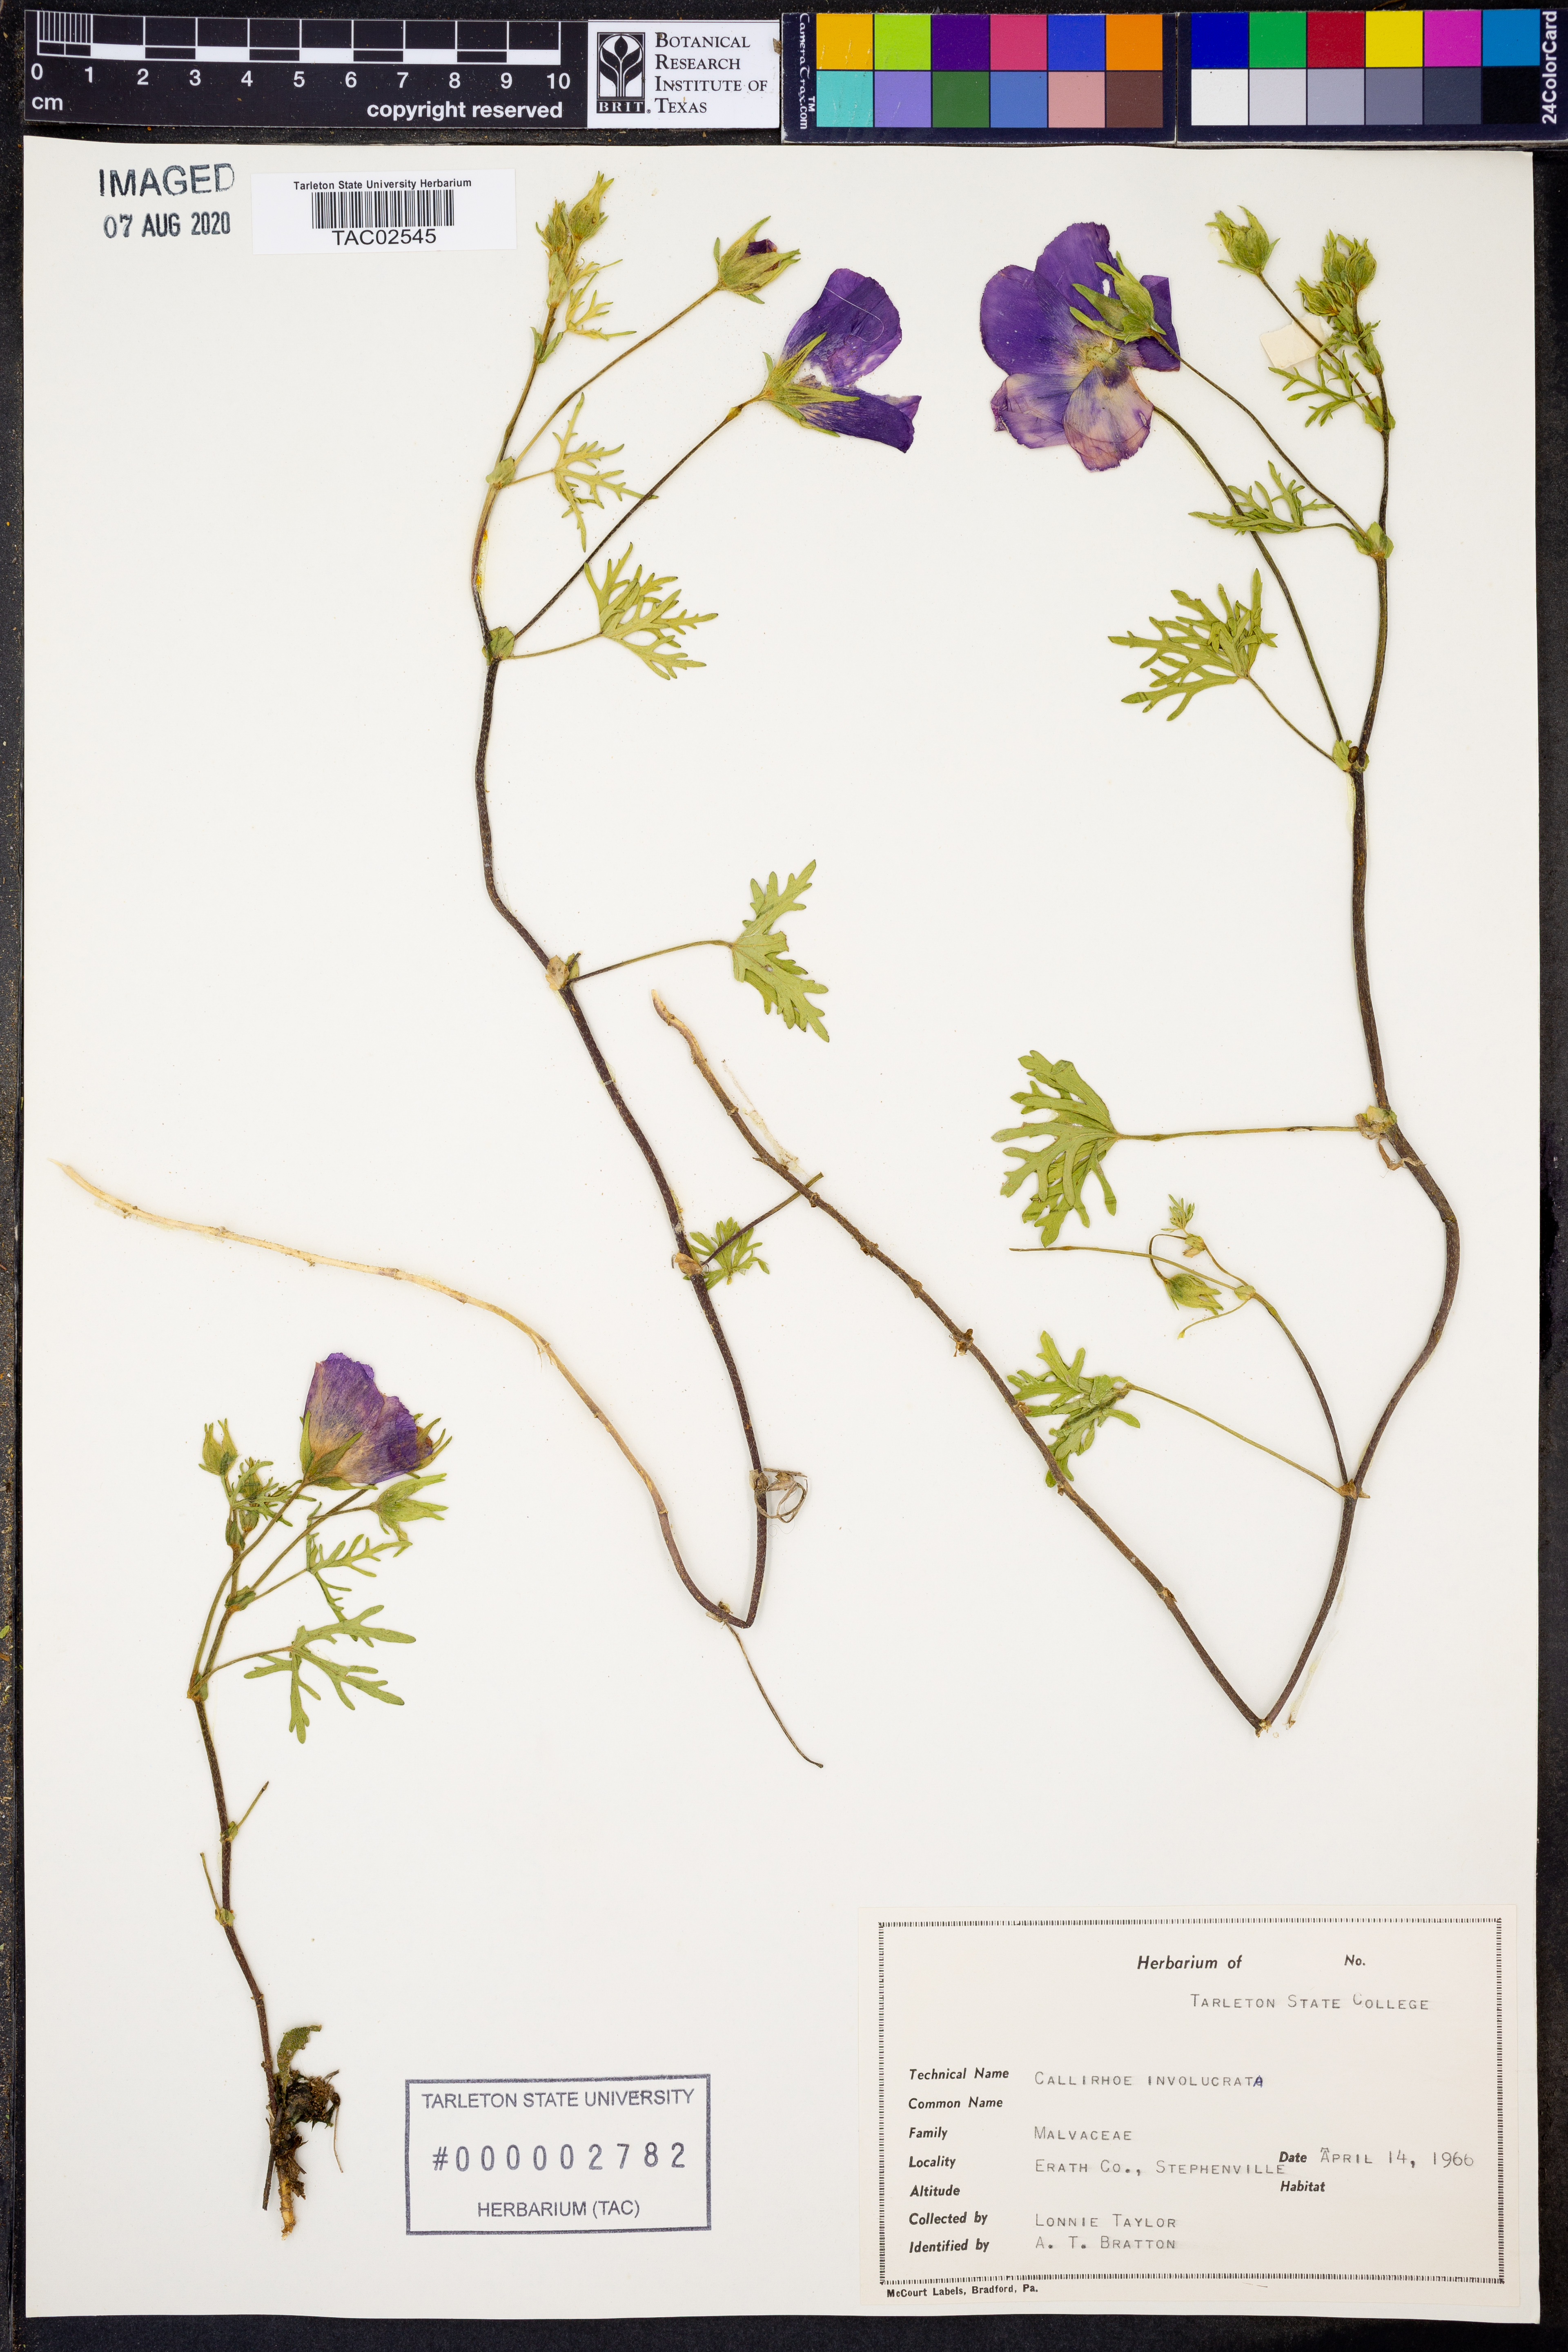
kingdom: Plantae
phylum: Tracheophyta
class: Magnoliopsida
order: Malvales
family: Malvaceae
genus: Callirhoe
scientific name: Callirhoe involucrata
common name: Purple poppy-mallow
